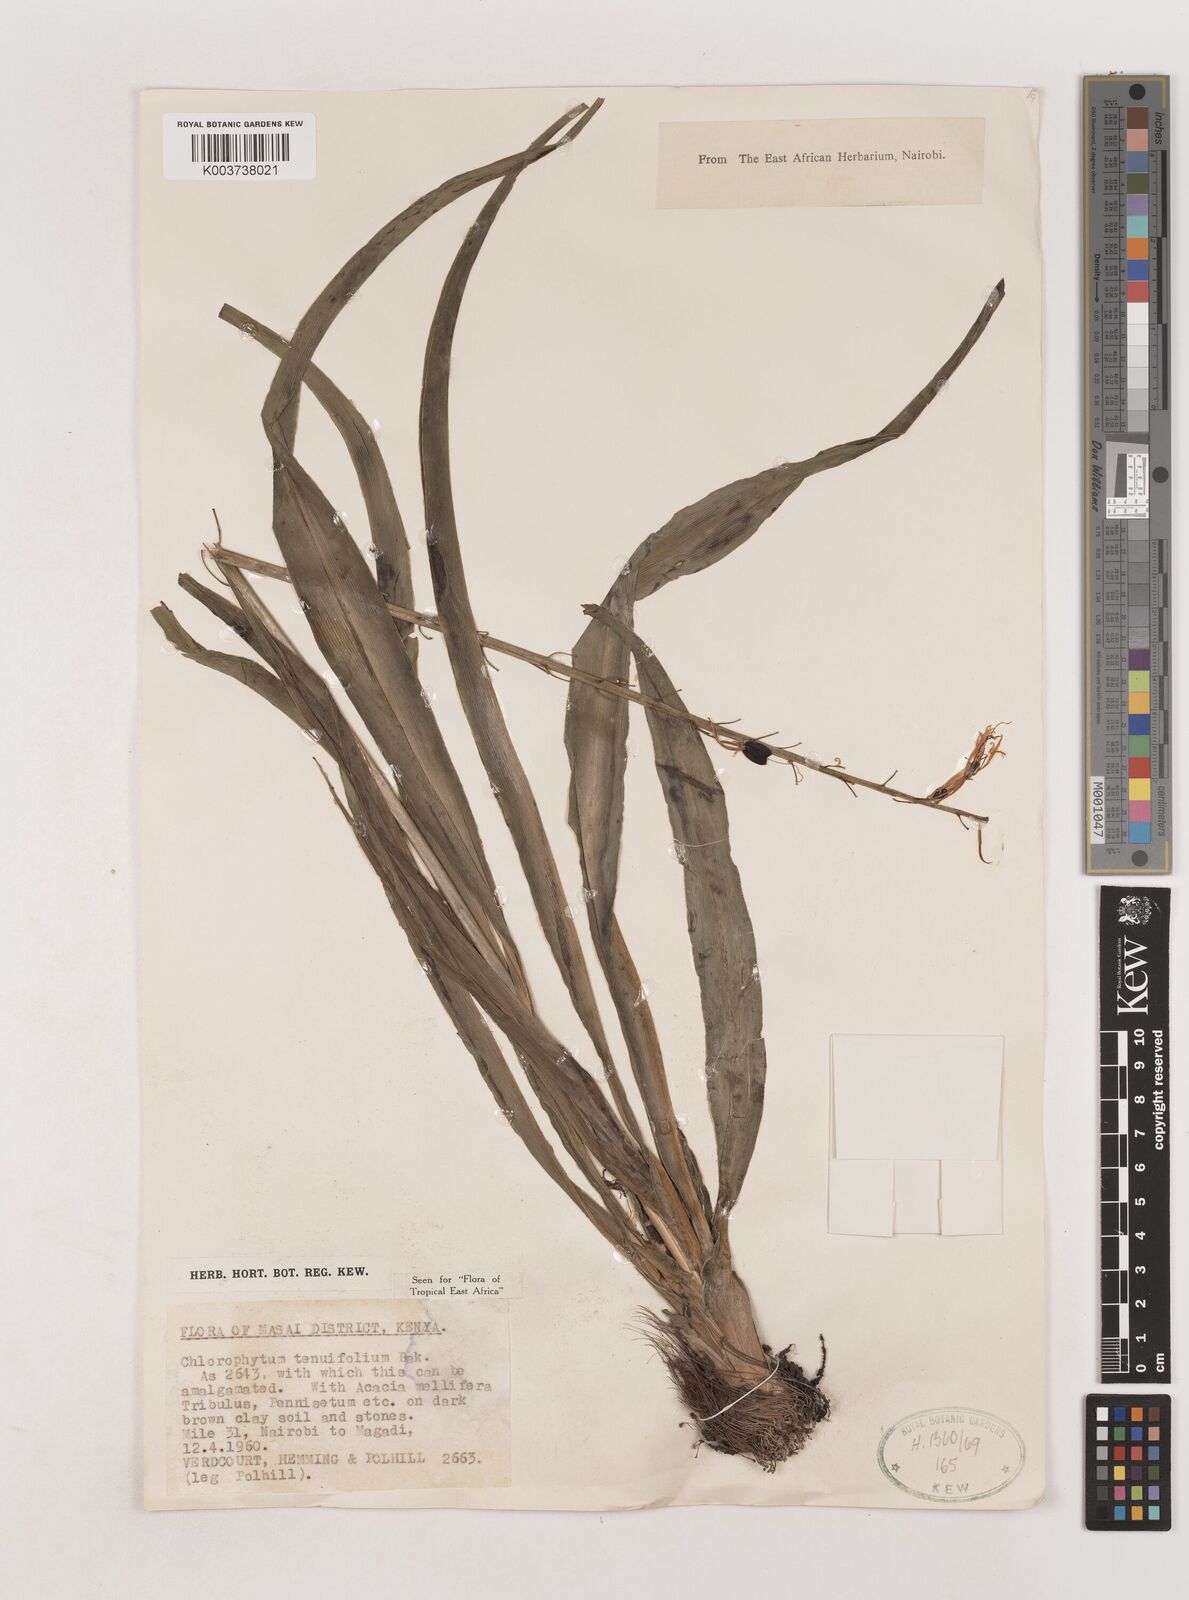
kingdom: Plantae
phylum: Tracheophyta
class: Liliopsida
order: Asparagales
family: Asparagaceae
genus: Chlorophytum
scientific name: Chlorophytum somaliense
